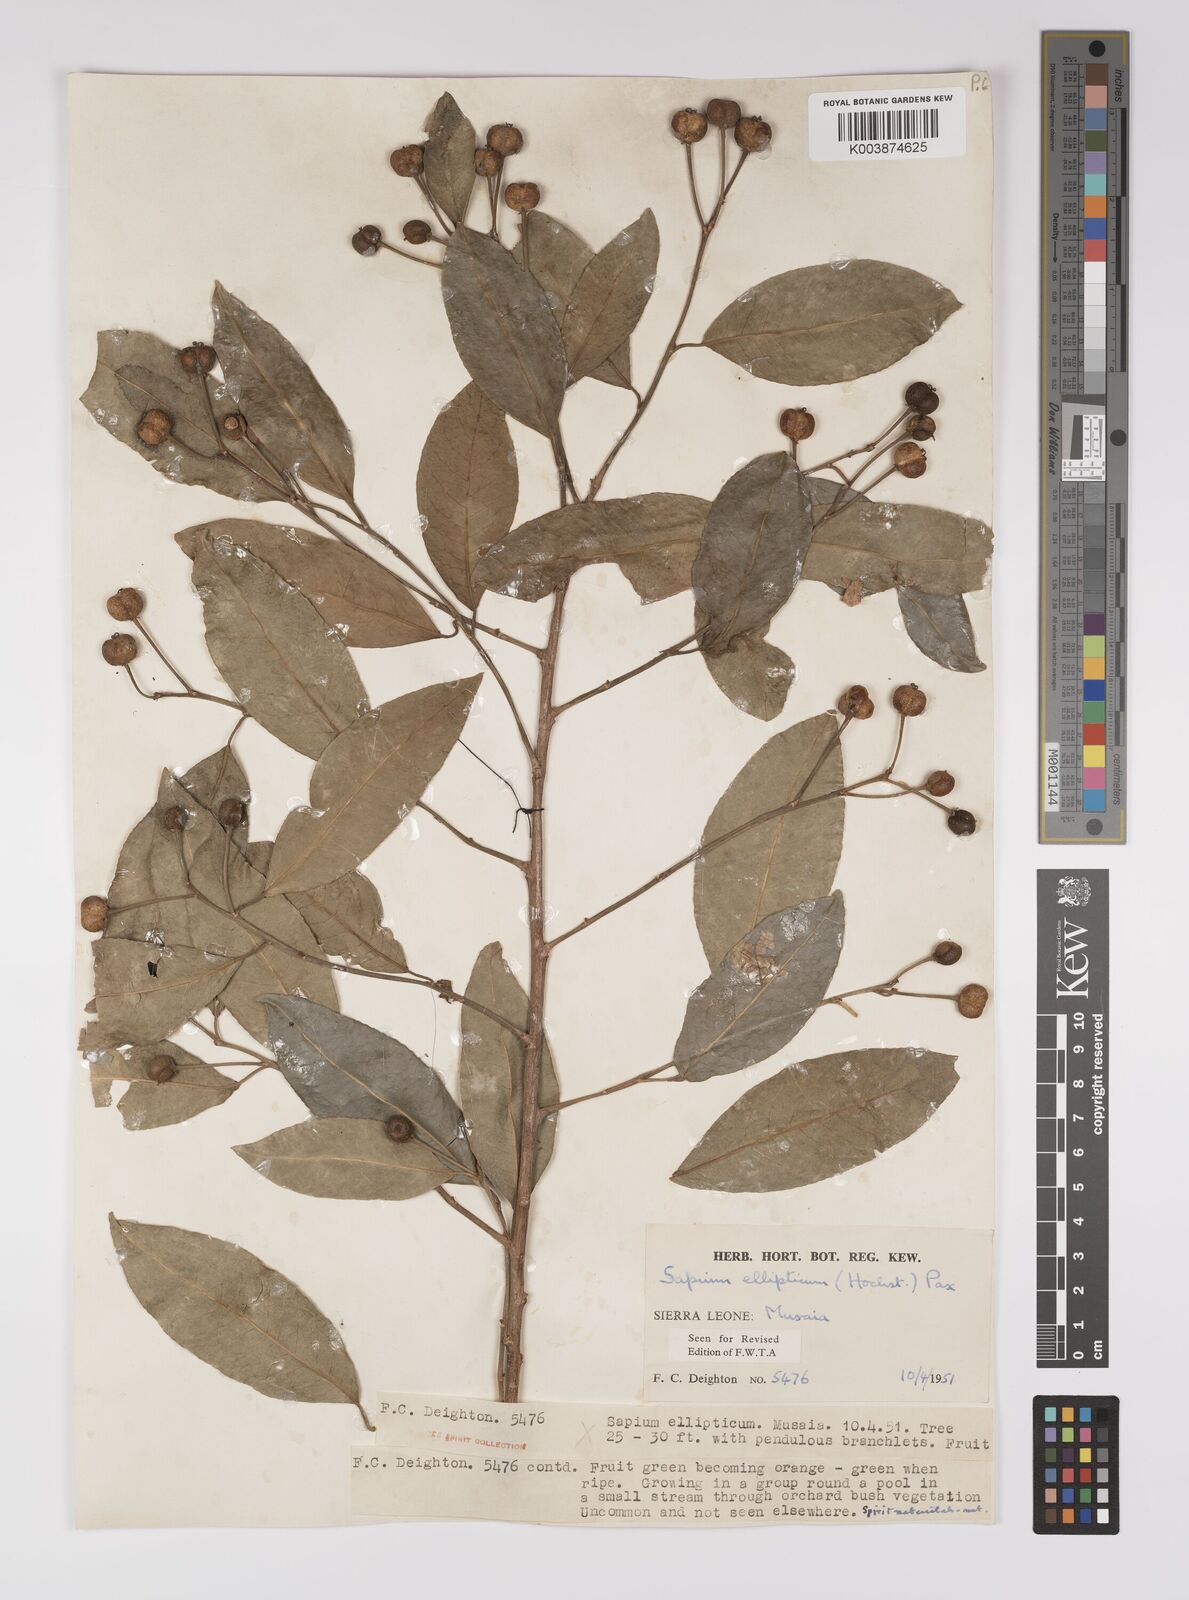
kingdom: Plantae
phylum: Tracheophyta
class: Magnoliopsida
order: Malpighiales
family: Euphorbiaceae
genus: Shirakiopsis
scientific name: Shirakiopsis elliptica
